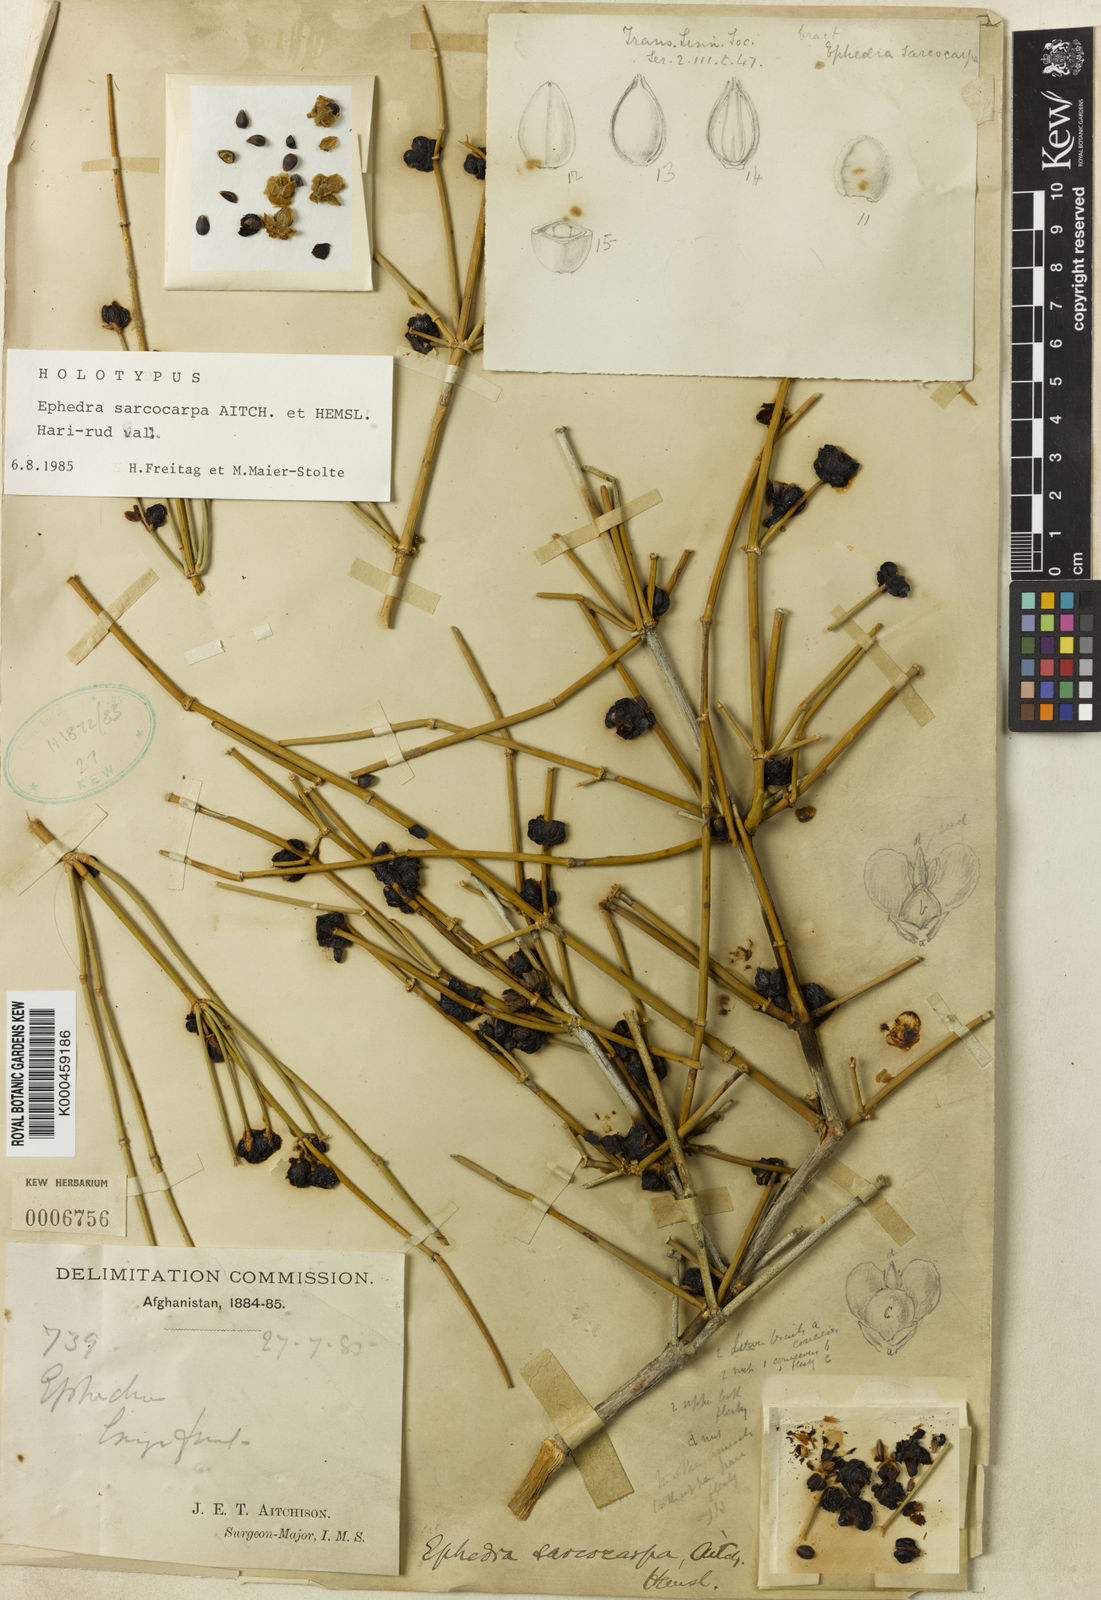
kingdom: Plantae
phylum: Tracheophyta
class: Gnetopsida
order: Ephedrales
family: Ephedraceae
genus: Ephedra
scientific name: Ephedra sarcocarpa
